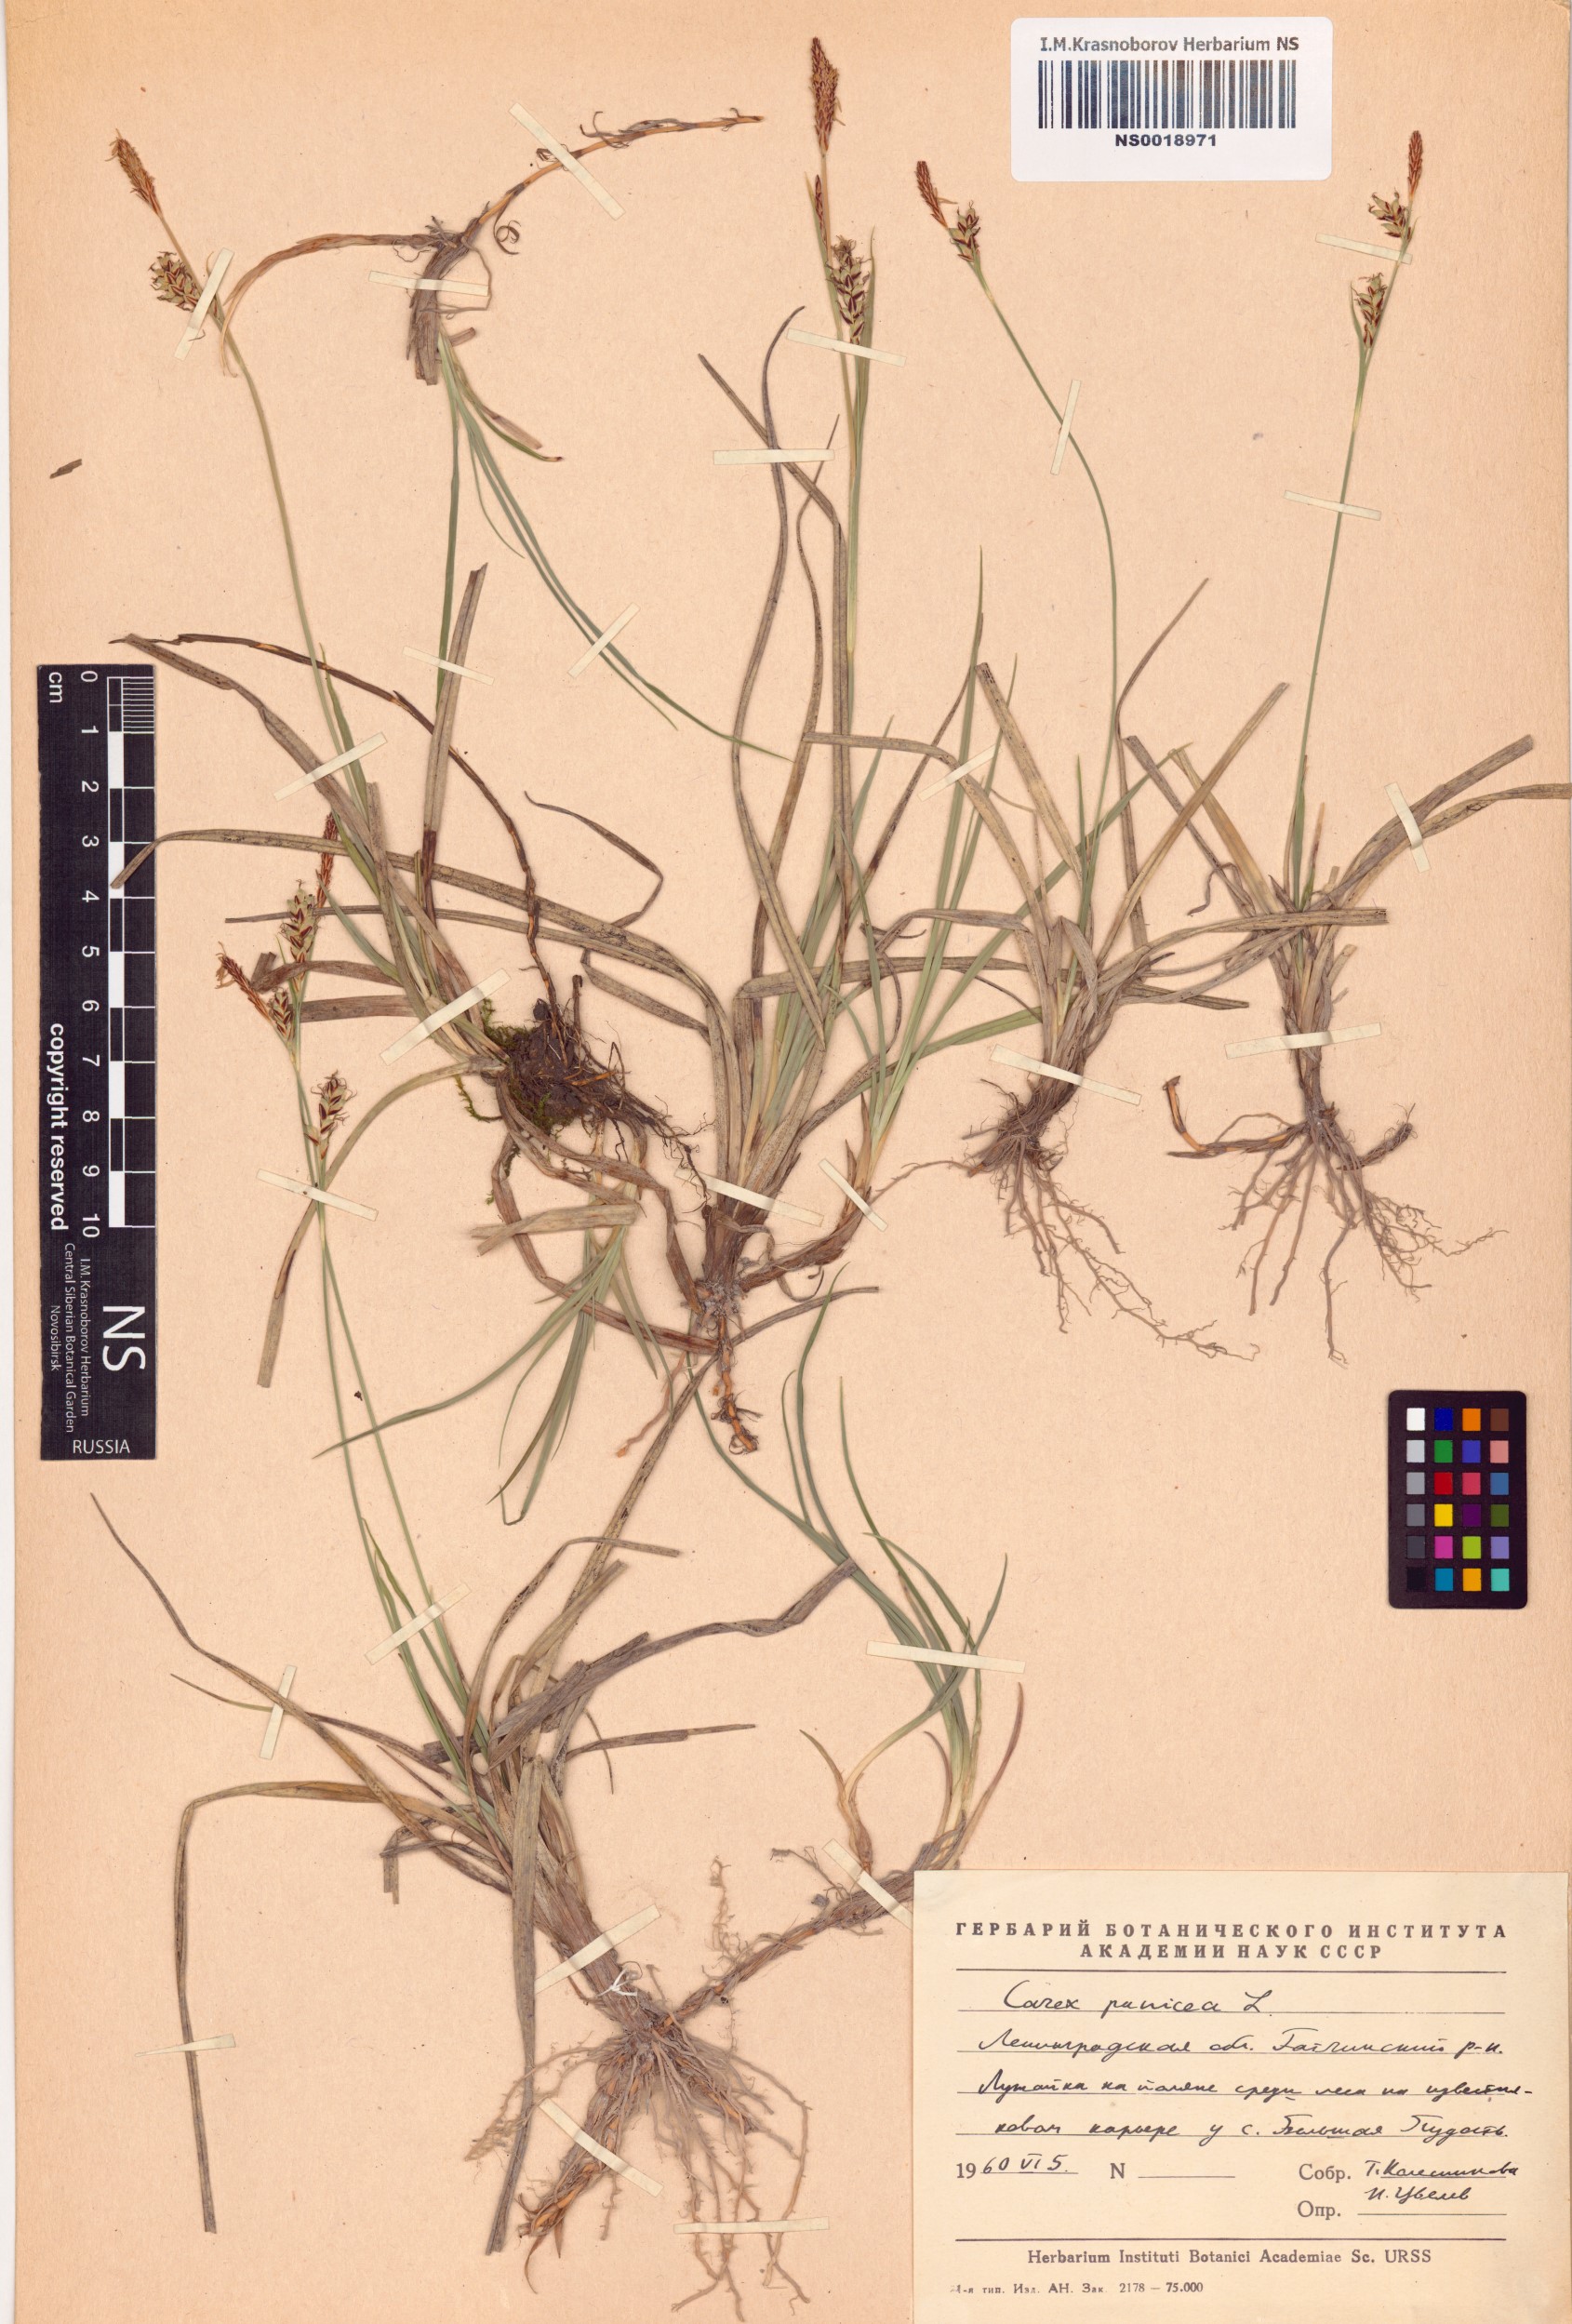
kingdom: Plantae
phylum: Tracheophyta
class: Liliopsida
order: Poales
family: Cyperaceae
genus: Carex
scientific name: Carex panicea
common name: Carnation sedge
